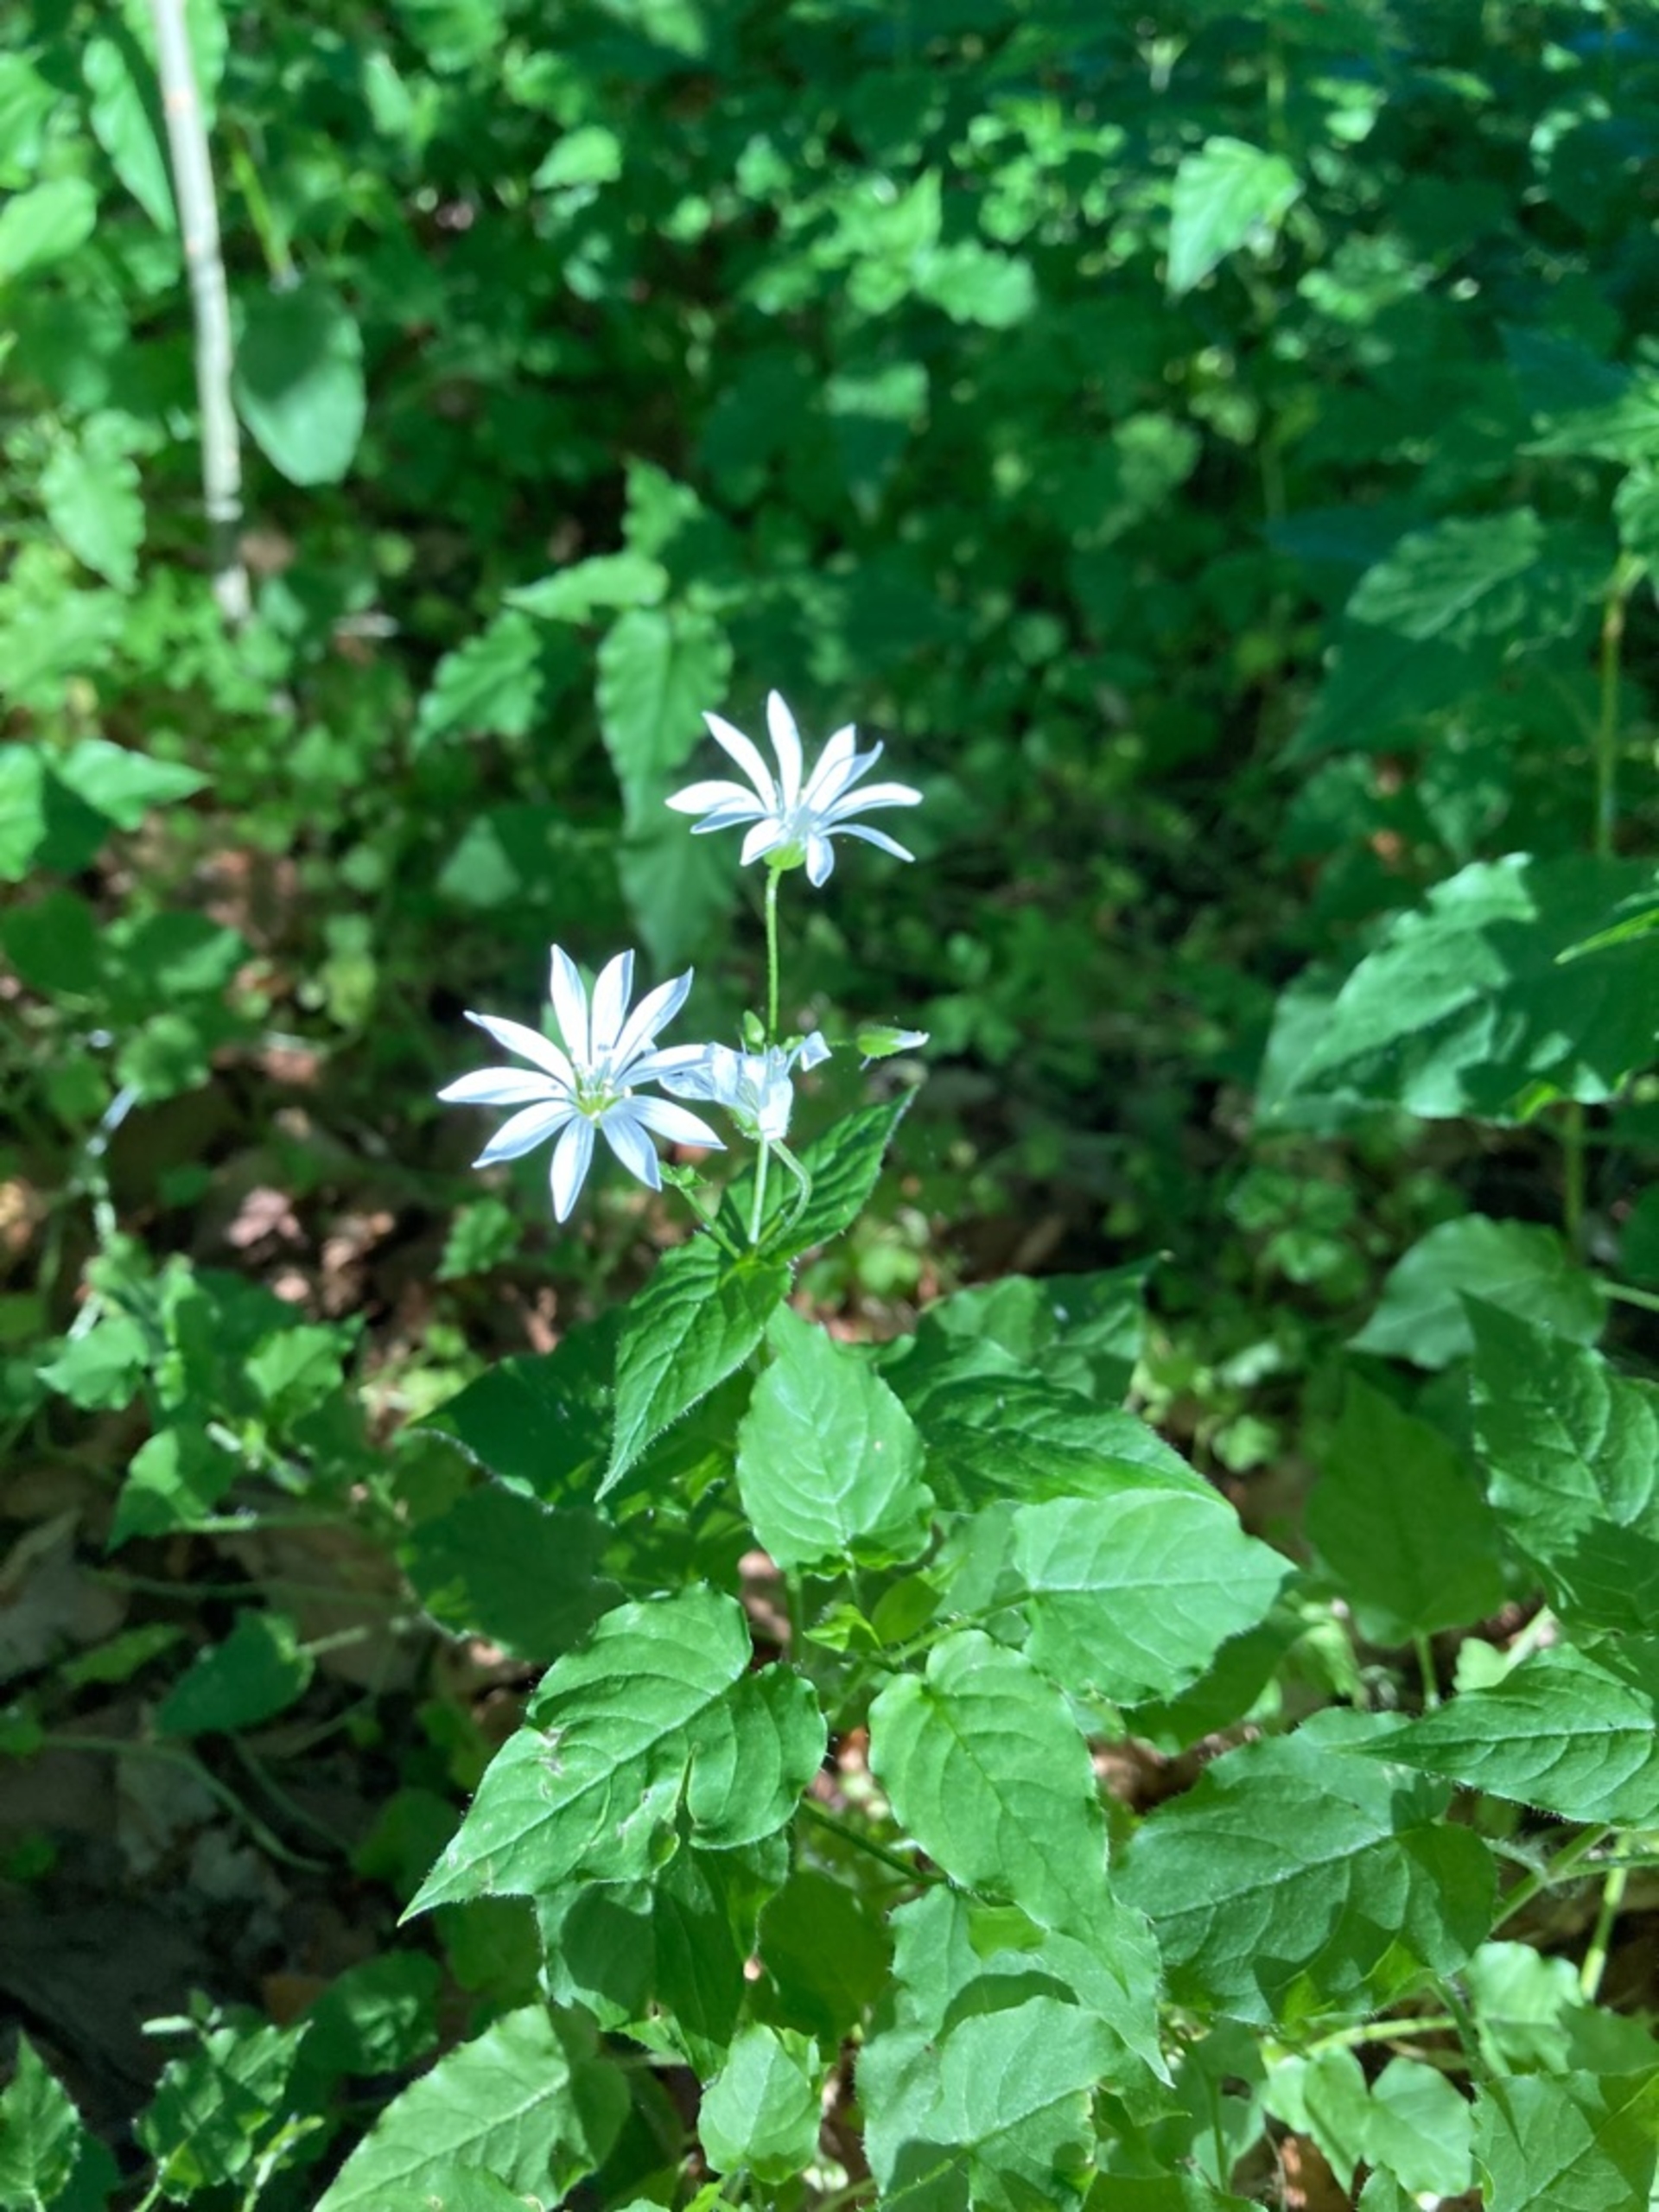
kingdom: Plantae
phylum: Tracheophyta
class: Magnoliopsida
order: Caryophyllales
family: Caryophyllaceae
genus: Stellaria
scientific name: Stellaria nemorum
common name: Lund-fladstjerne
